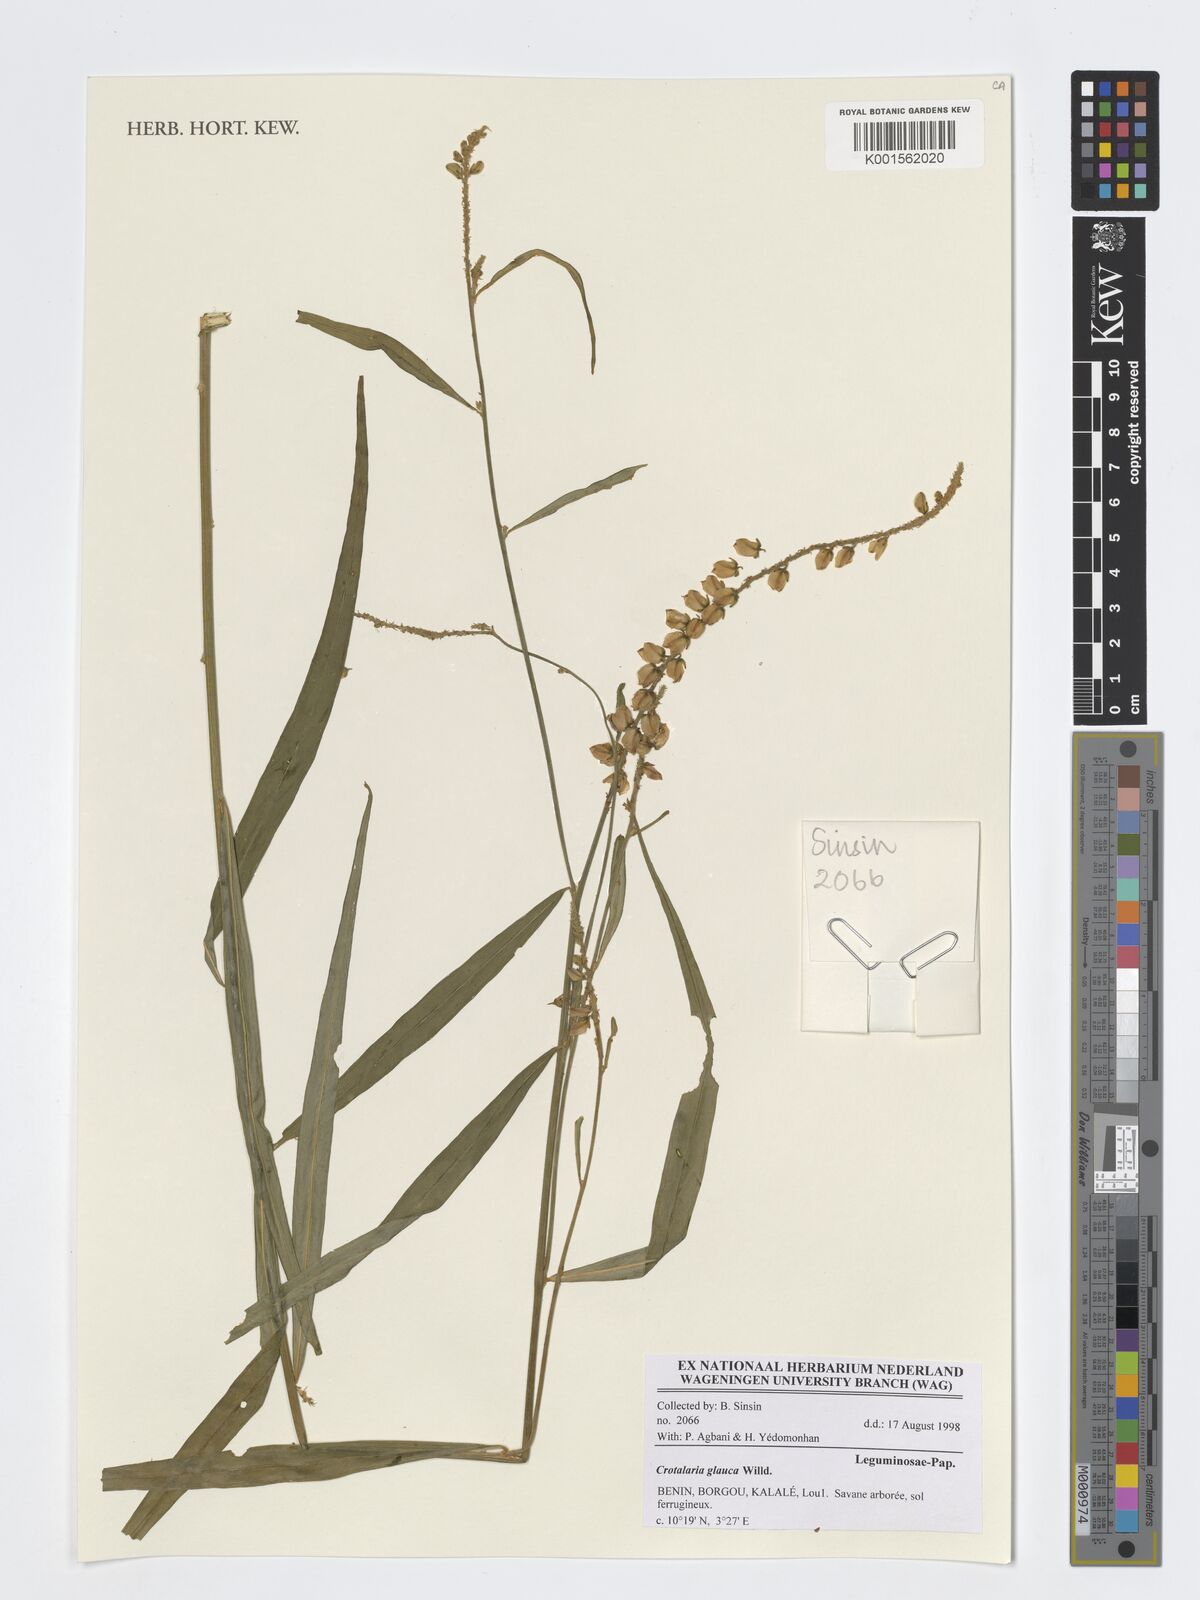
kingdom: Plantae
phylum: Tracheophyta
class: Magnoliopsida
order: Fabales
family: Fabaceae
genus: Crotalaria
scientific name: Crotalaria glauca
